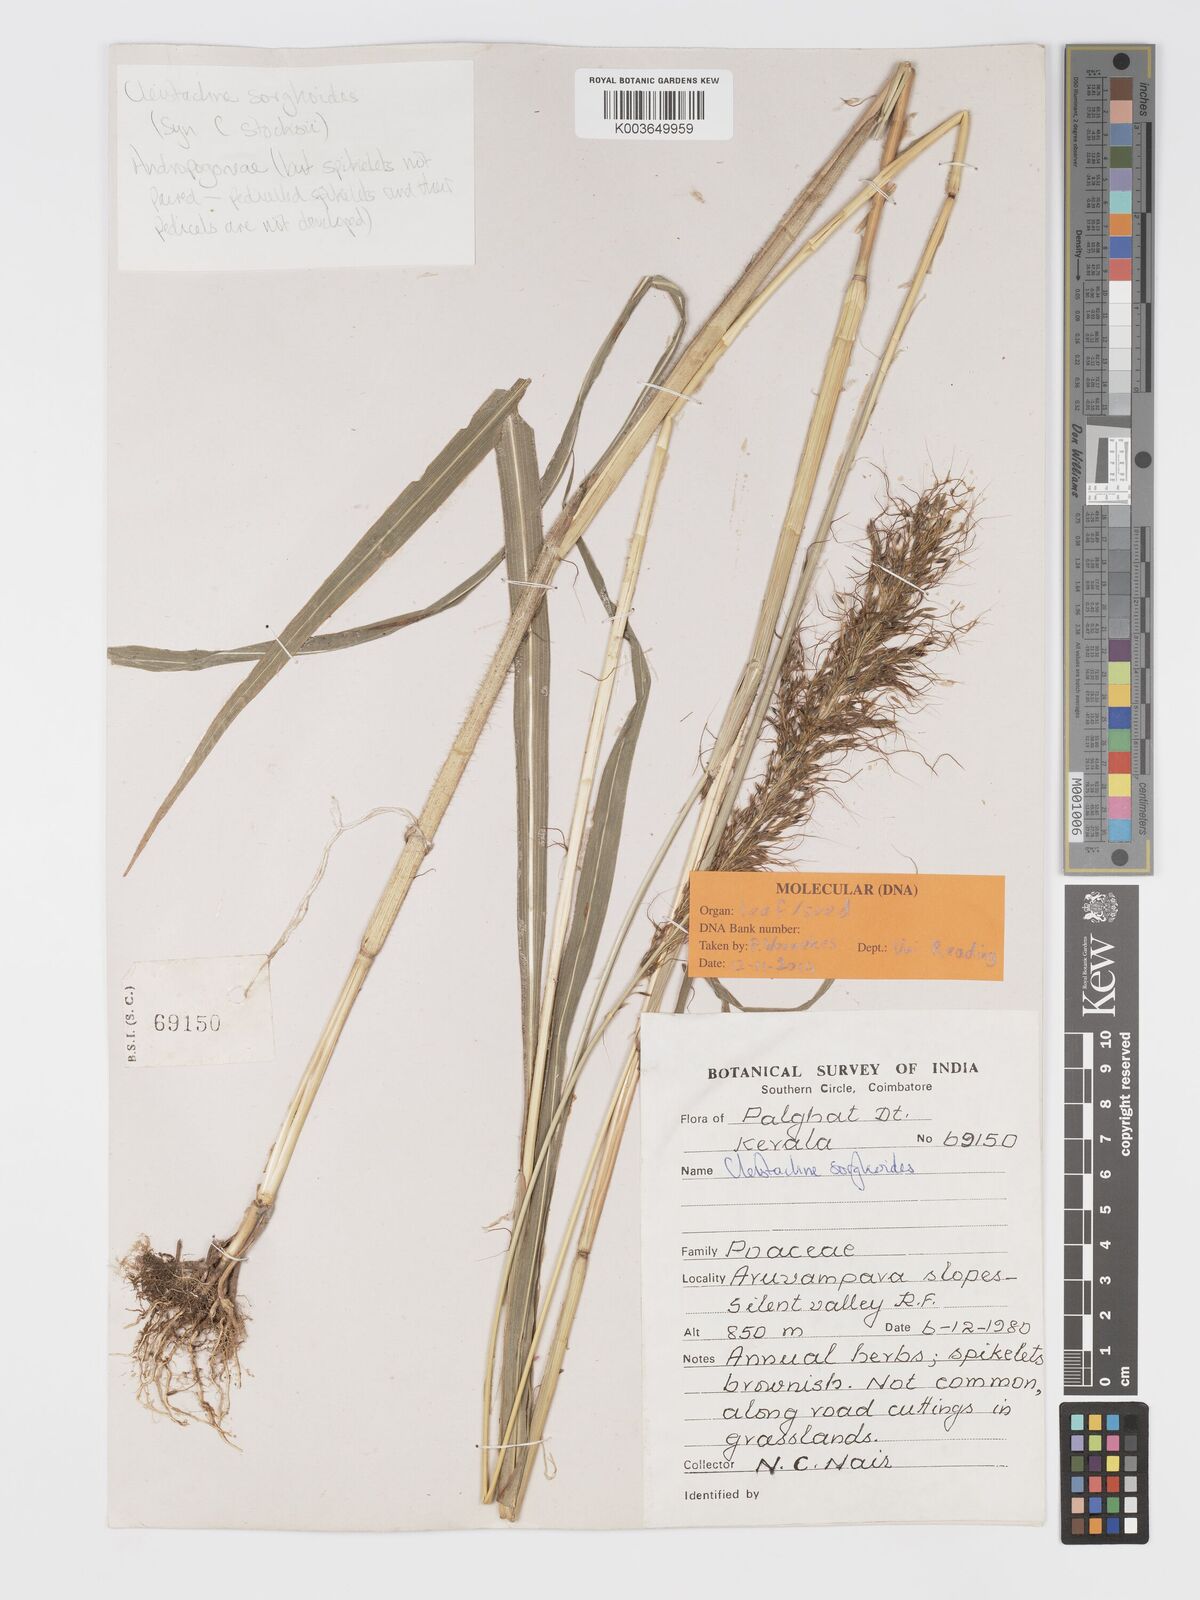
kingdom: Plantae
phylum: Tracheophyta
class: Liliopsida
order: Poales
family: Poaceae
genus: Cleistachne
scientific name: Cleistachne sorghoides
